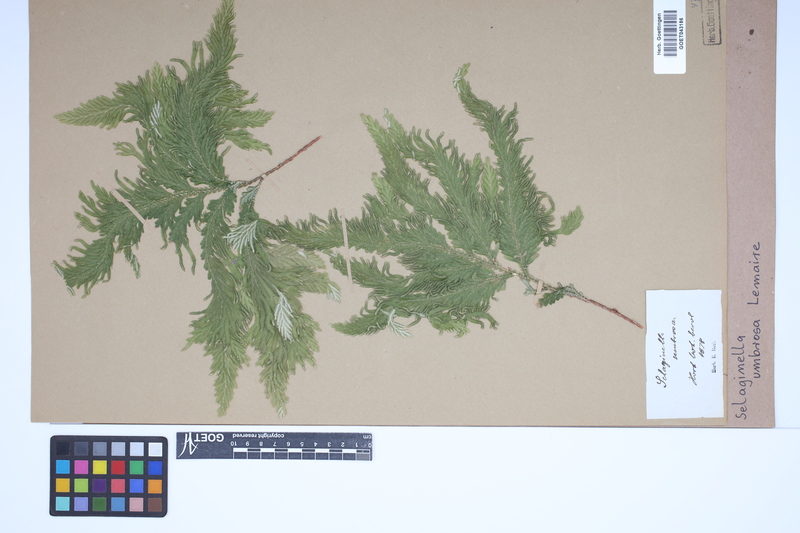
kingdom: Plantae
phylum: Tracheophyta
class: Lycopodiopsida
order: Selaginellales
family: Selaginellaceae
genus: Selaginella
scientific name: Selaginella umbrosa
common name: Spikemoss
